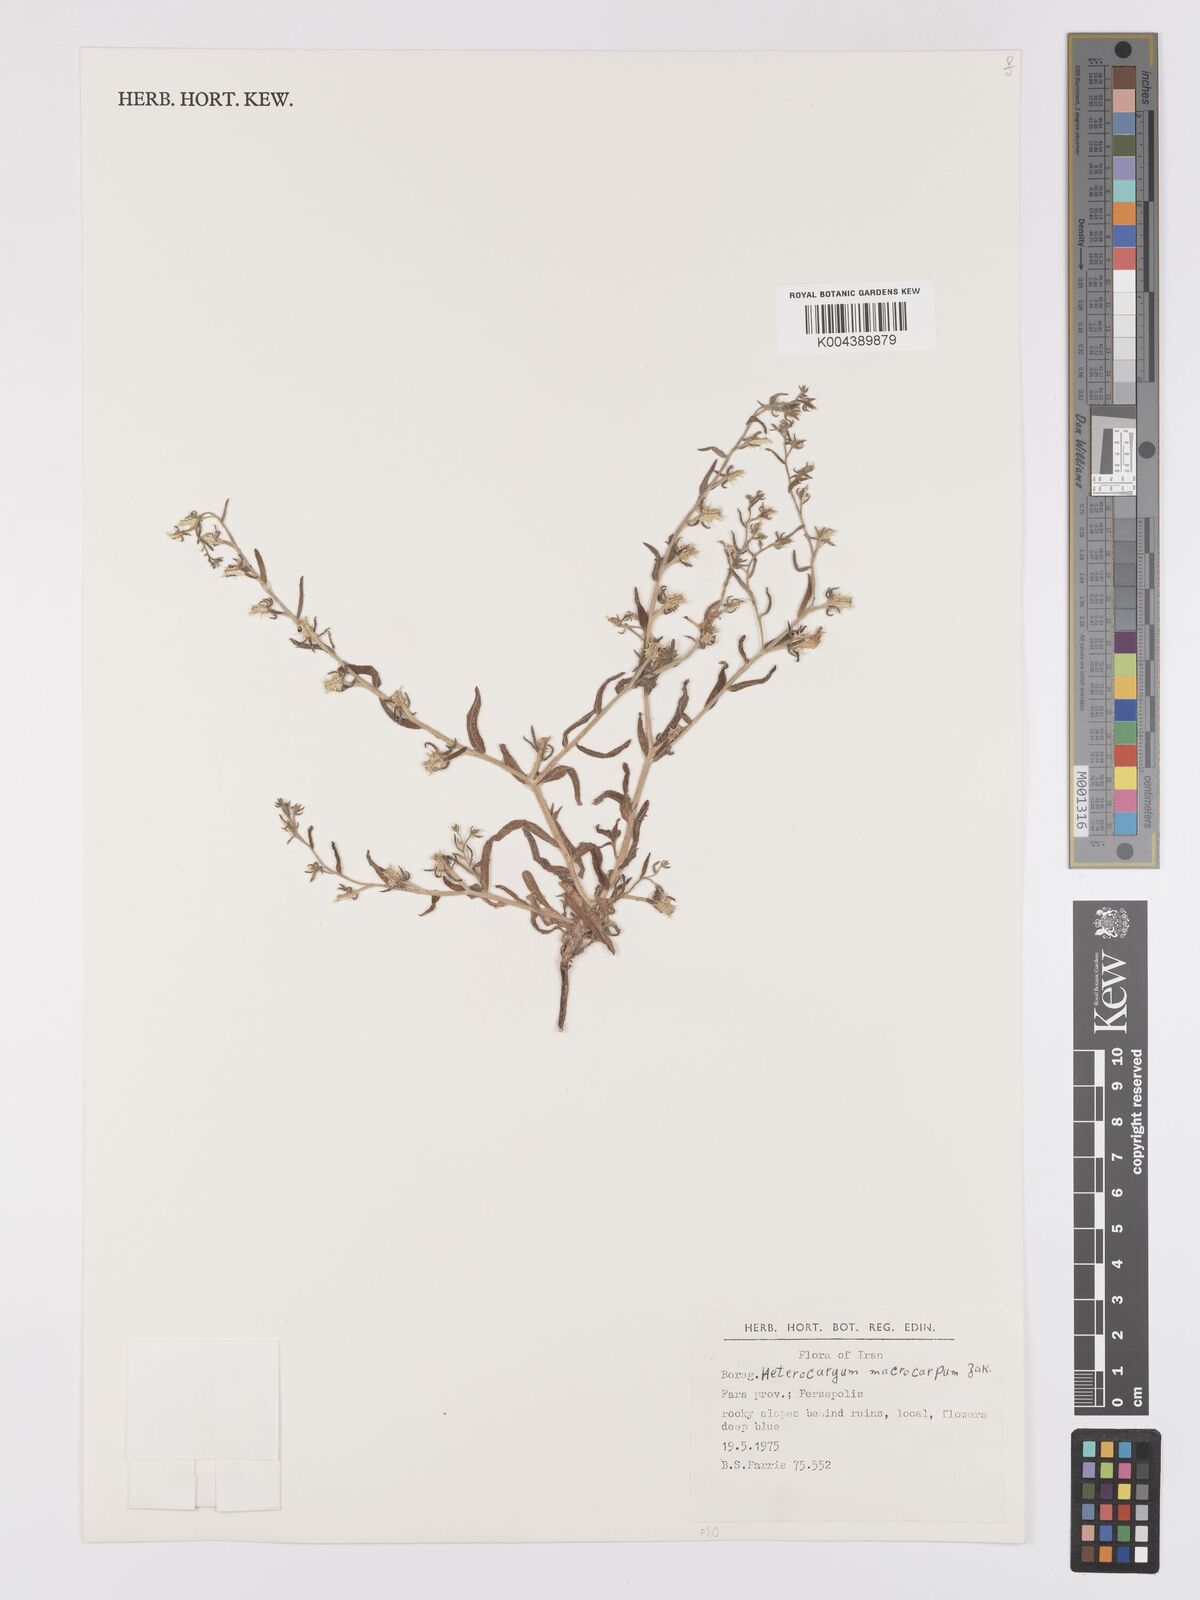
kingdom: Plantae
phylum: Tracheophyta
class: Magnoliopsida
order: Boraginales
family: Boraginaceae
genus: Lappula
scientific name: Lappula
